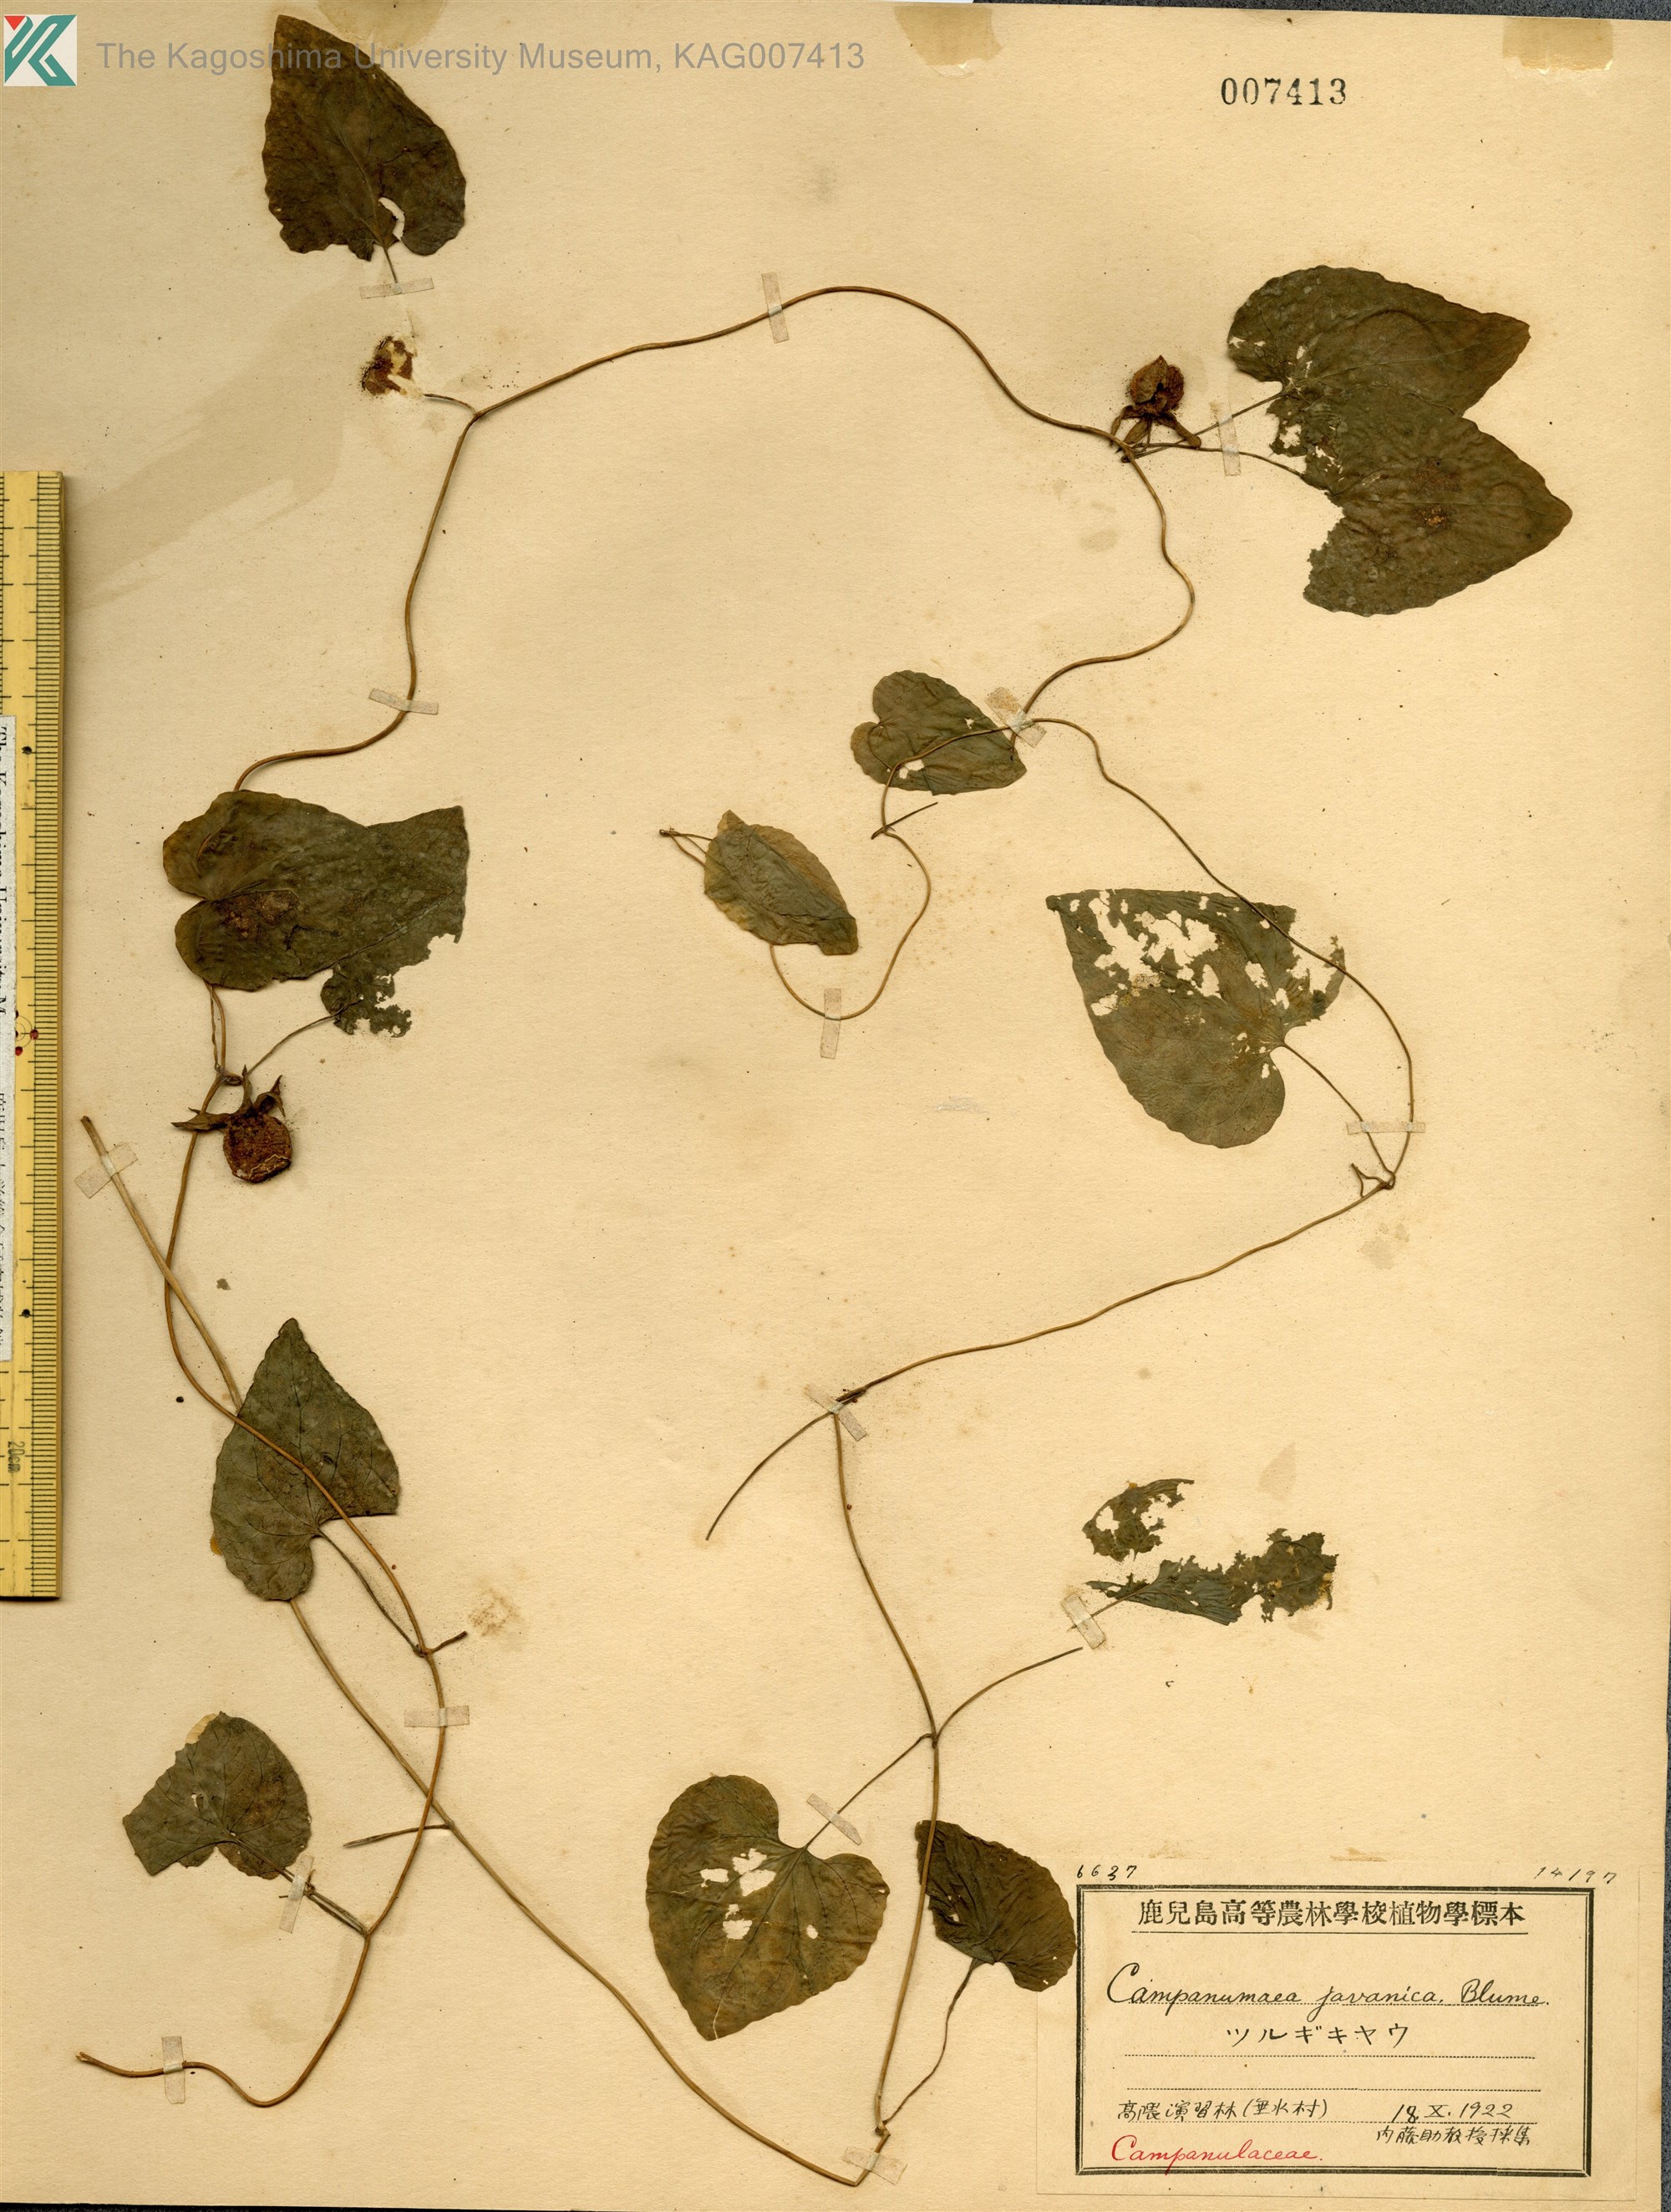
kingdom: Plantae
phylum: Tracheophyta
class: Magnoliopsida
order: Asterales
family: Campanulaceae
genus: Codonopsis
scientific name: Codonopsis javanica
